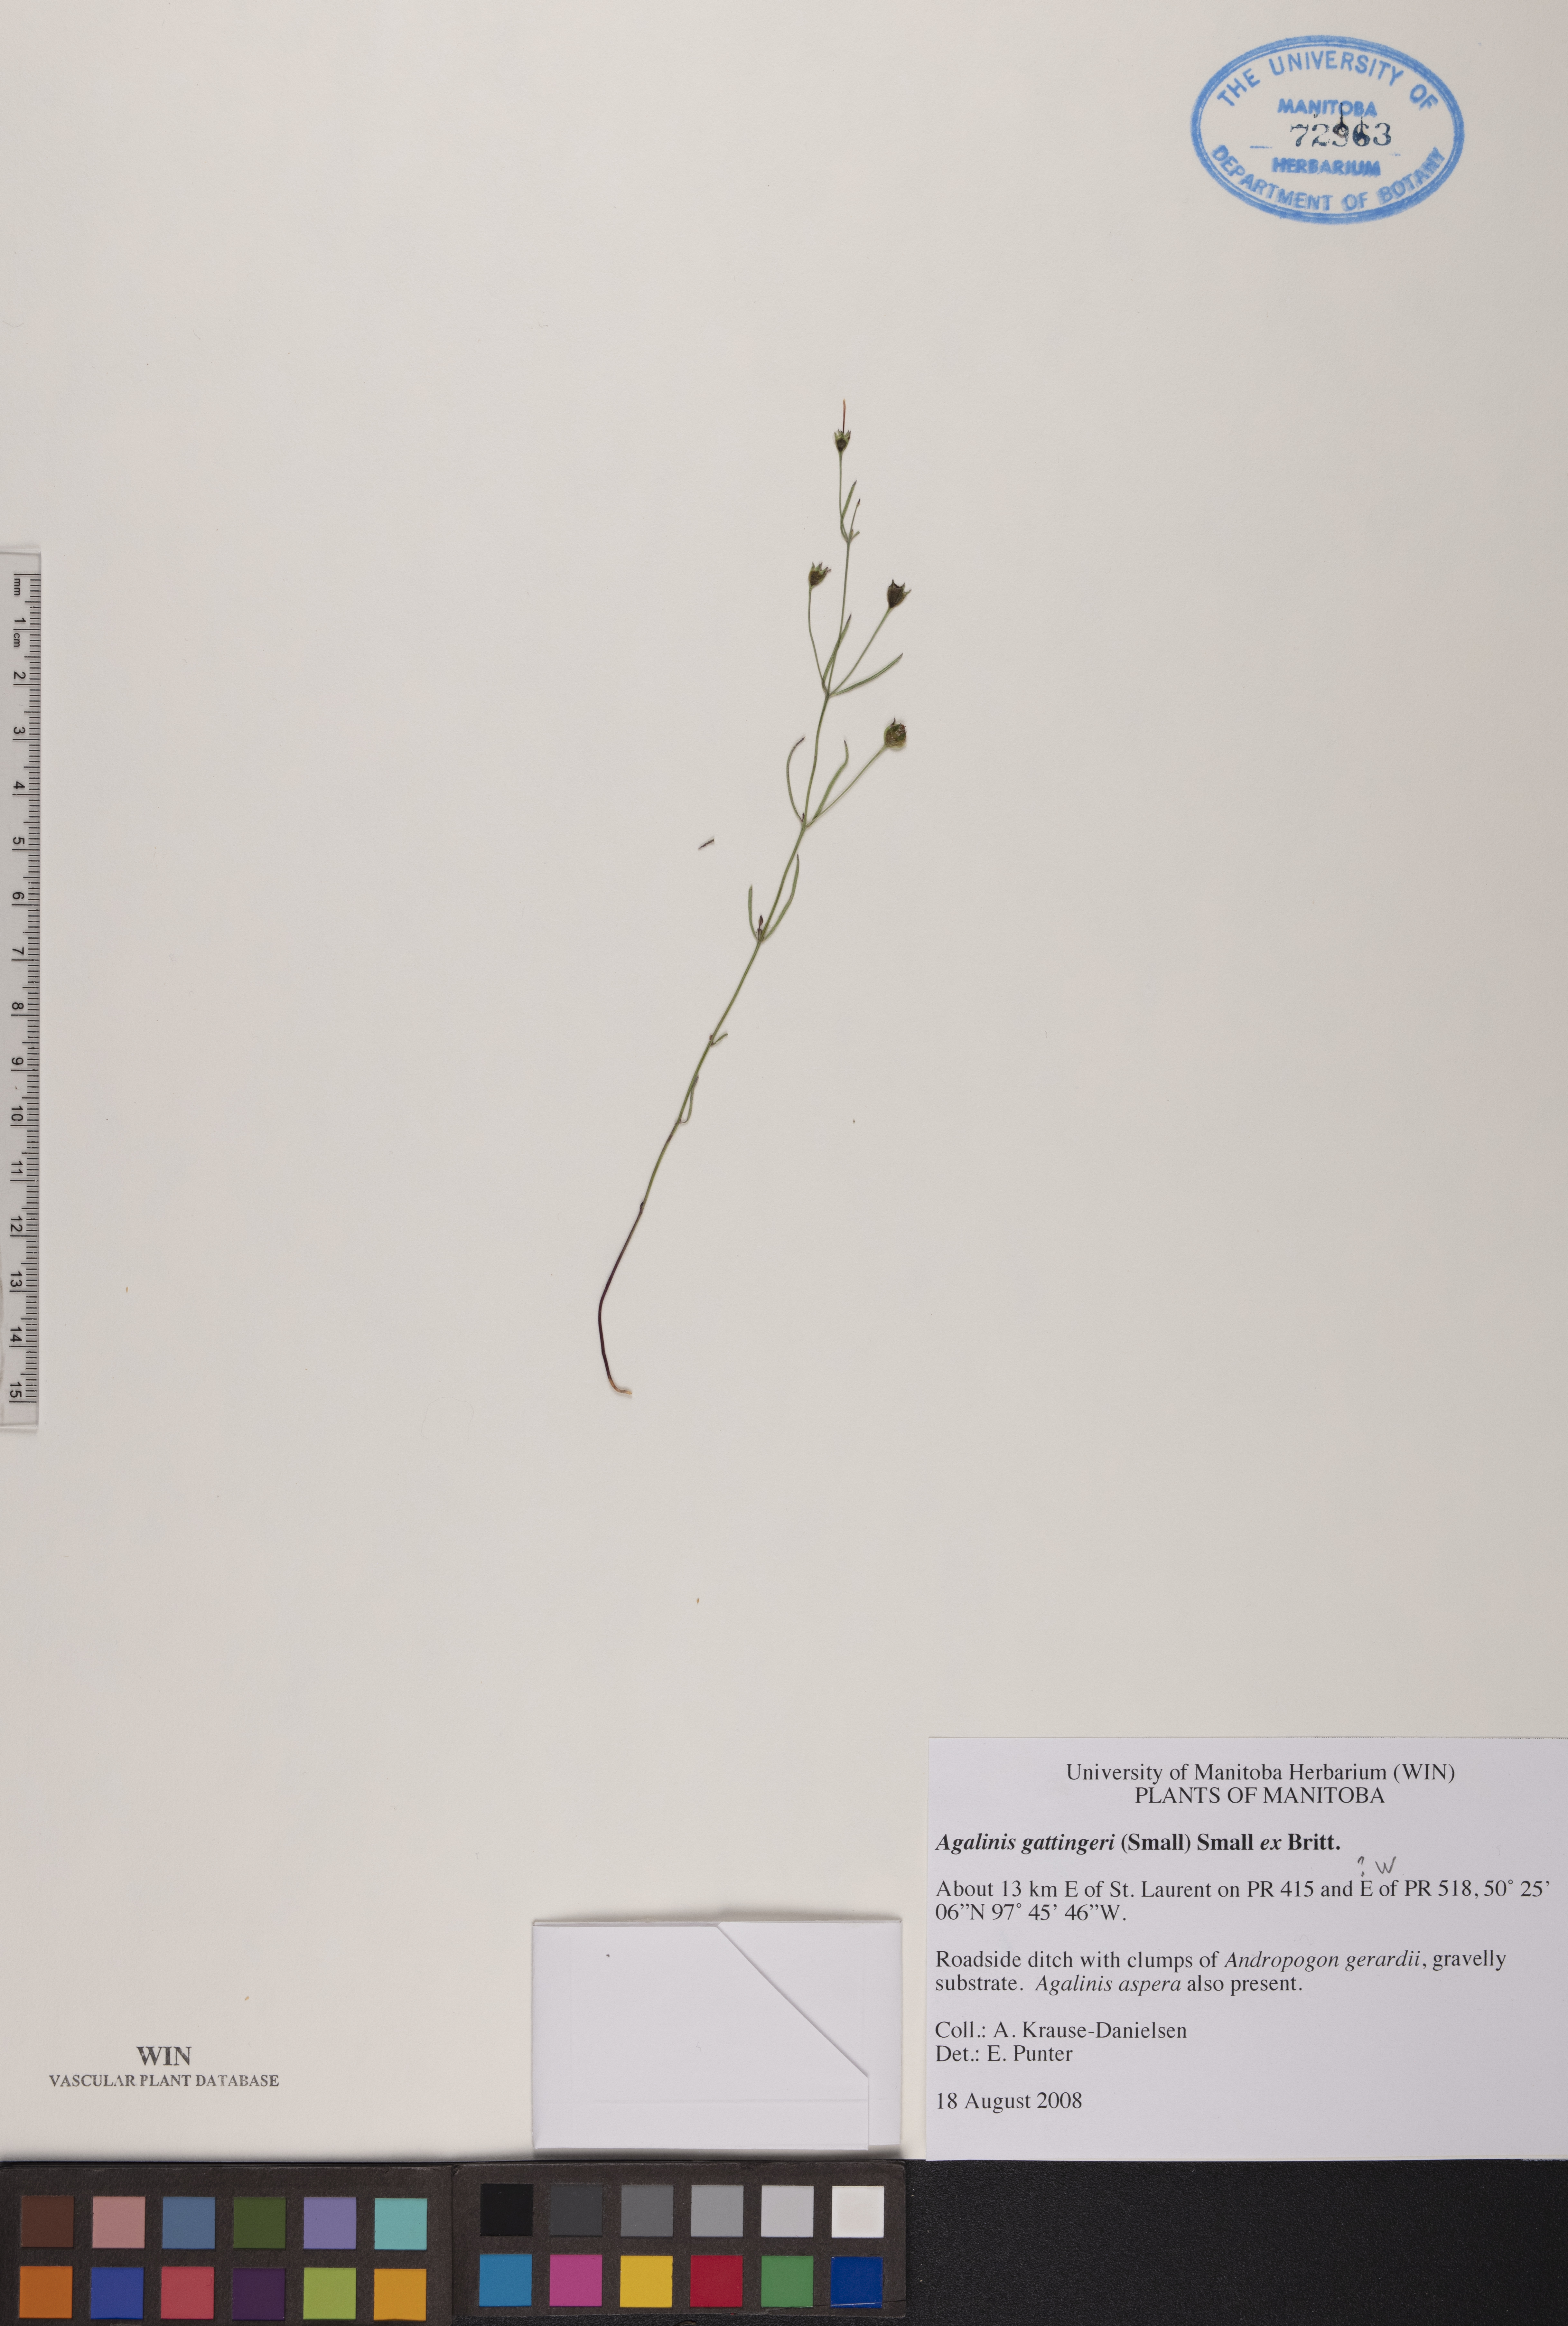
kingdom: Plantae
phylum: Tracheophyta
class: Magnoliopsida
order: Lamiales
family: Orobanchaceae
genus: Agalinis
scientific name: Agalinis gattingeri
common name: Gattinger's agalinis
